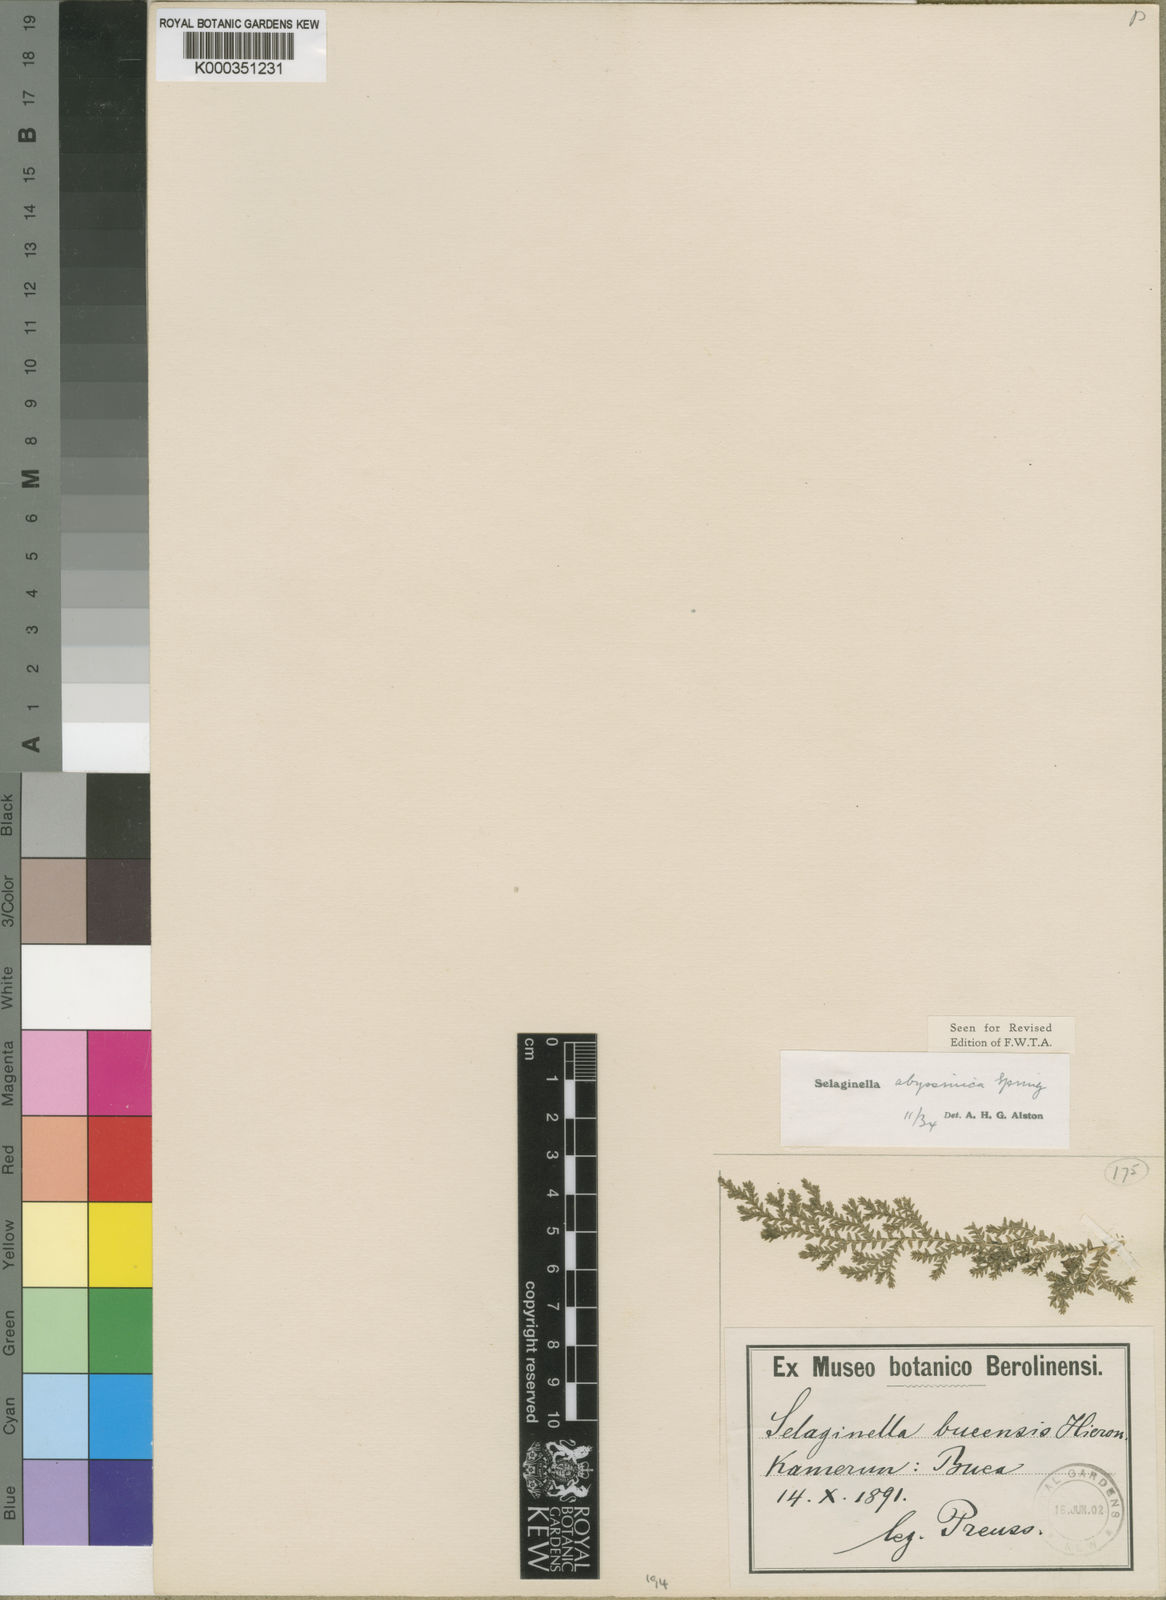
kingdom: Plantae
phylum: Tracheophyta
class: Lycopodiopsida
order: Selaginellales
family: Selaginellaceae
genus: Selaginella
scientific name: Selaginella
